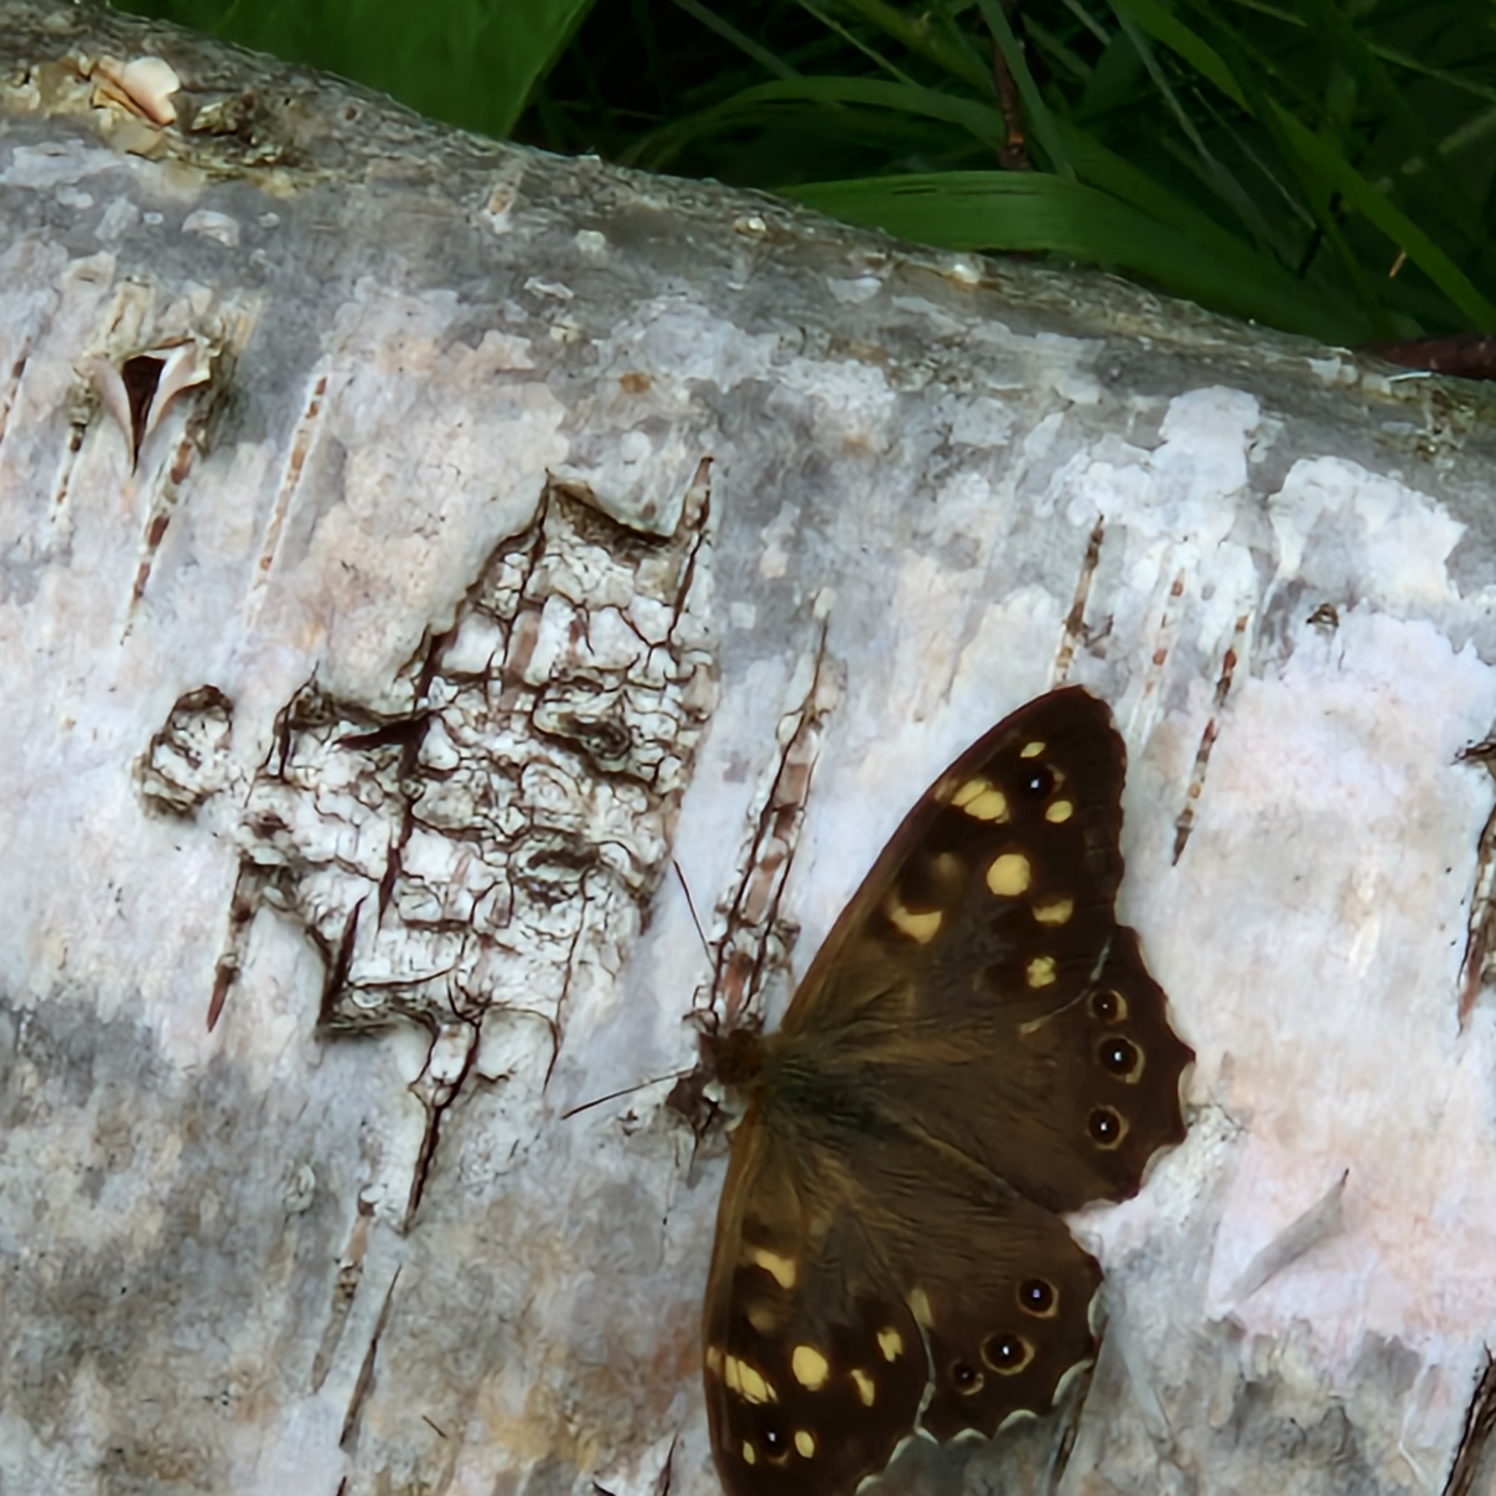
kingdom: Animalia
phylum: Arthropoda
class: Insecta
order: Lepidoptera
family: Nymphalidae
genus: Pararge
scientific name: Pararge aegeria
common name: Skovrandøje
